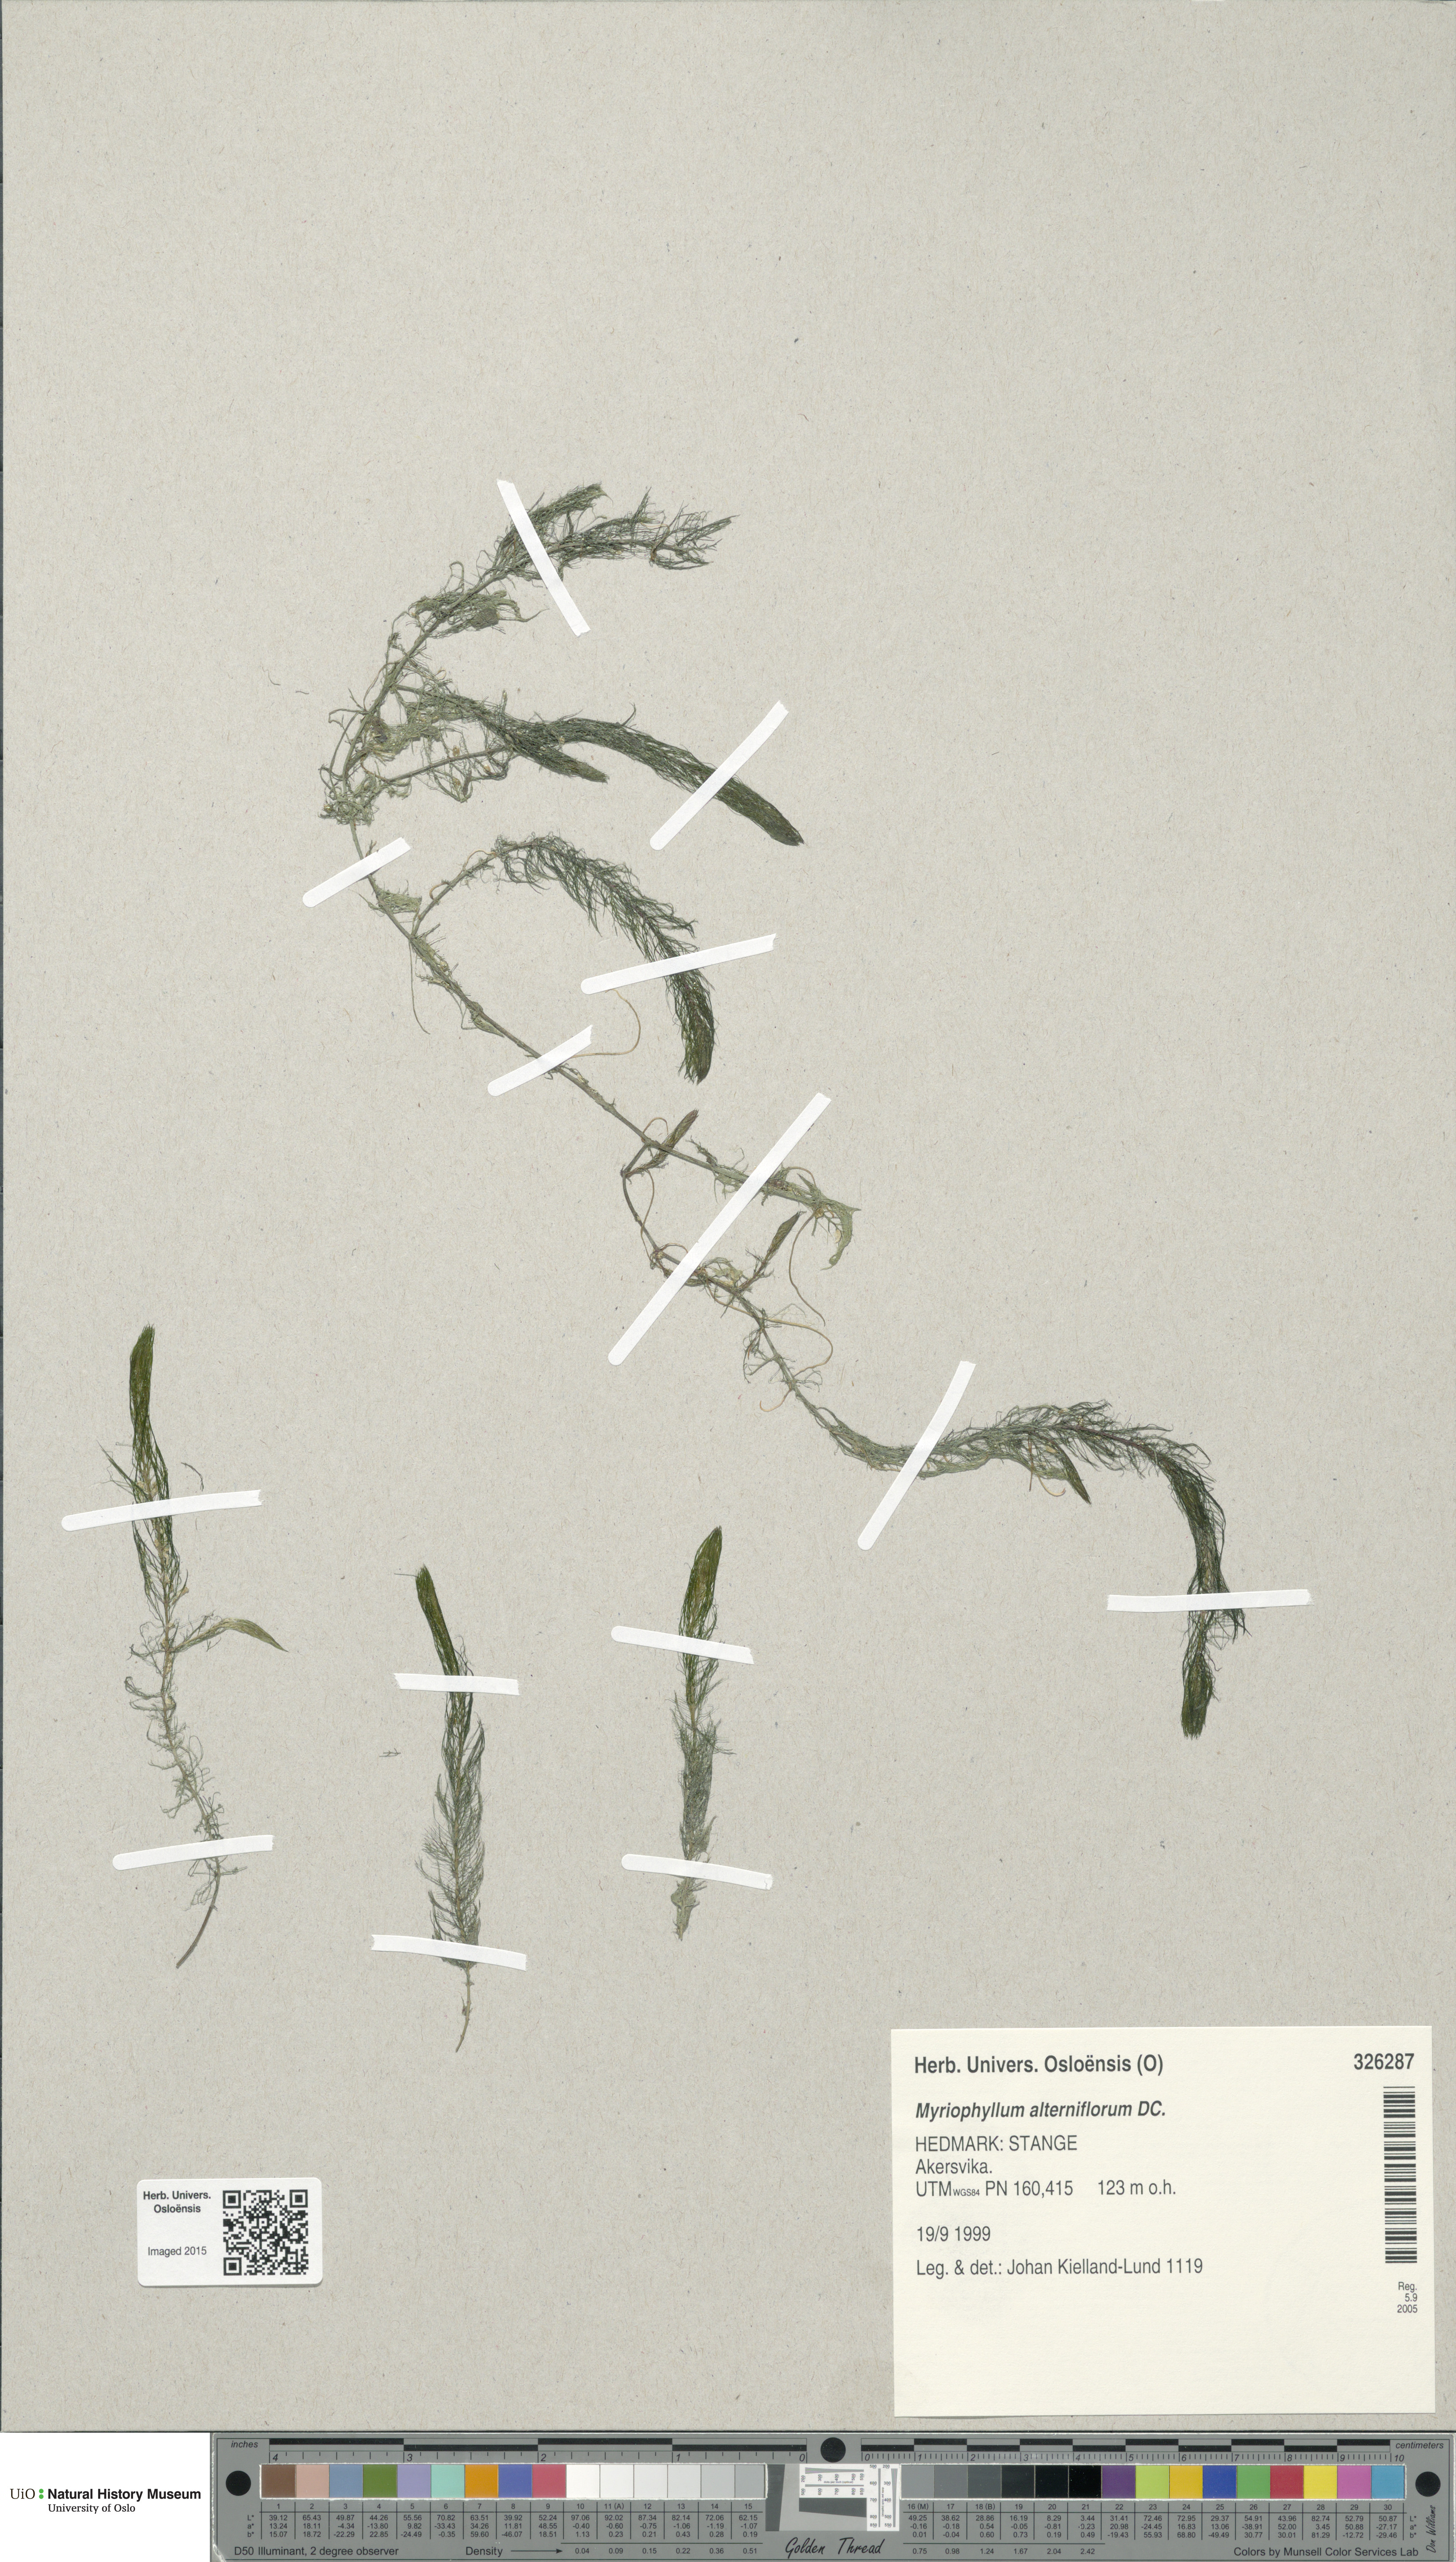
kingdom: Plantae
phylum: Tracheophyta
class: Magnoliopsida
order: Saxifragales
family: Haloragaceae
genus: Myriophyllum
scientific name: Myriophyllum alterniflorum
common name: Alternate water-milfoil
